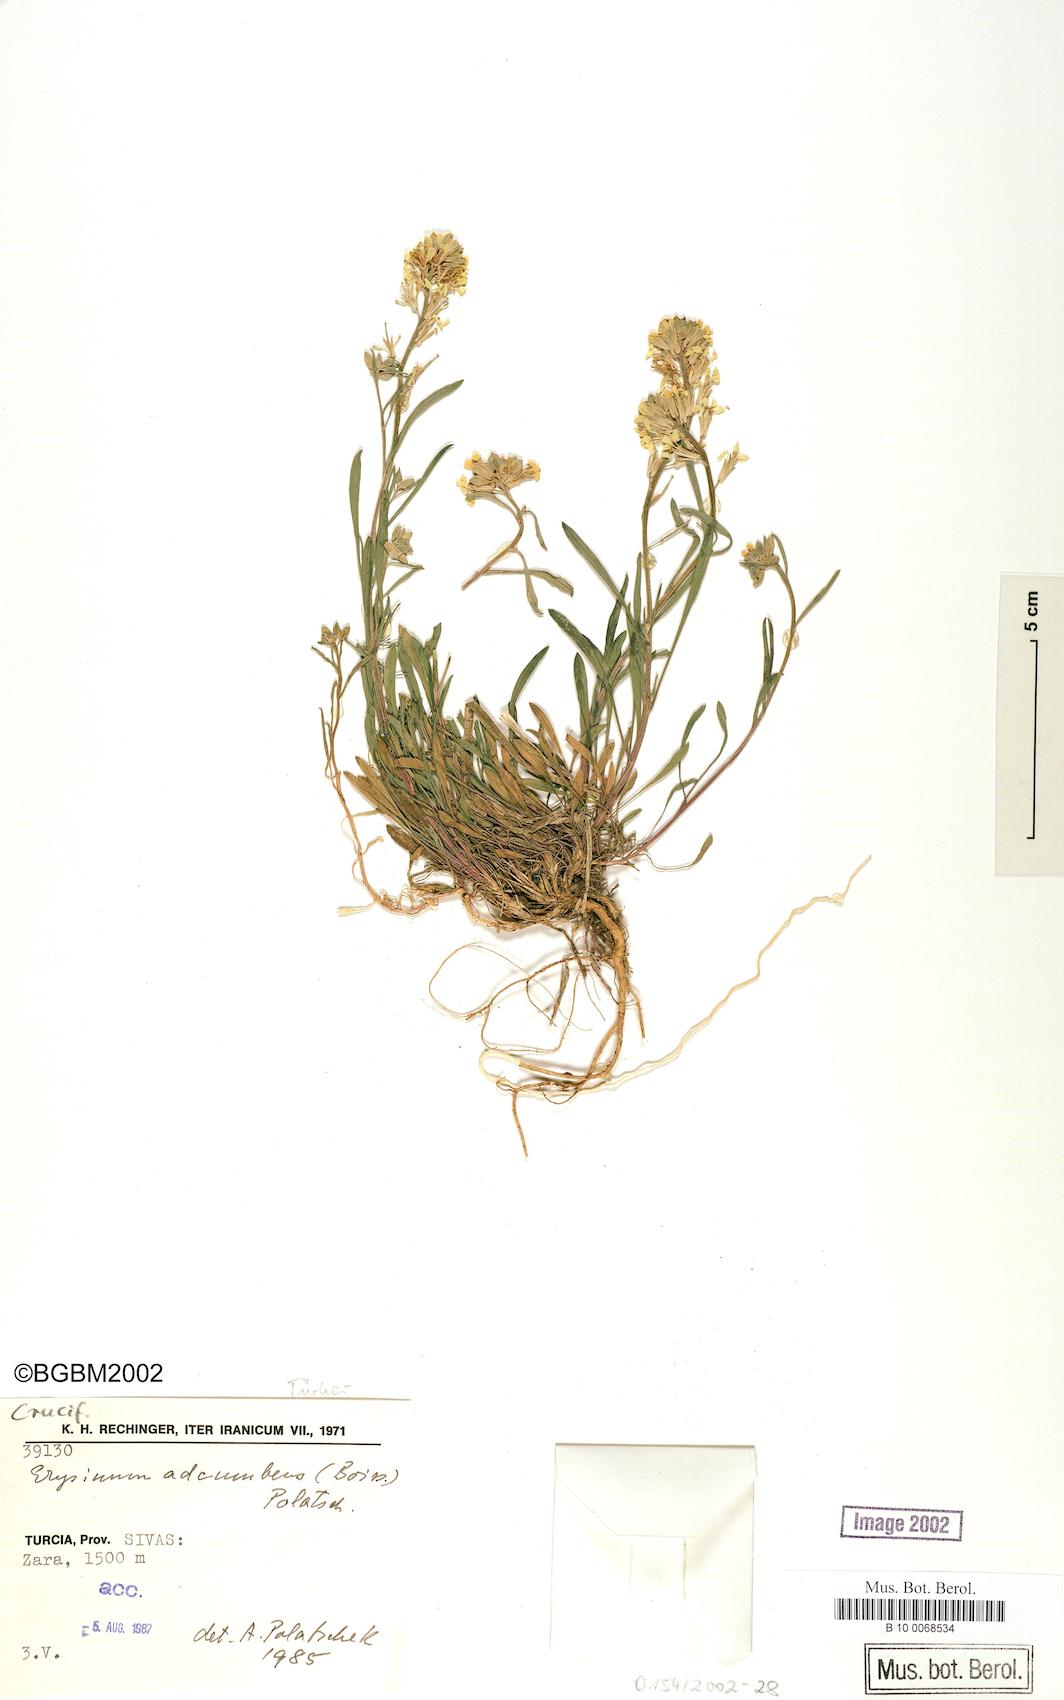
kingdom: Plantae
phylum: Tracheophyta
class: Magnoliopsida
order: Brassicales
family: Brassicaceae
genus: Erysimum
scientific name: Erysimum adcumbens
